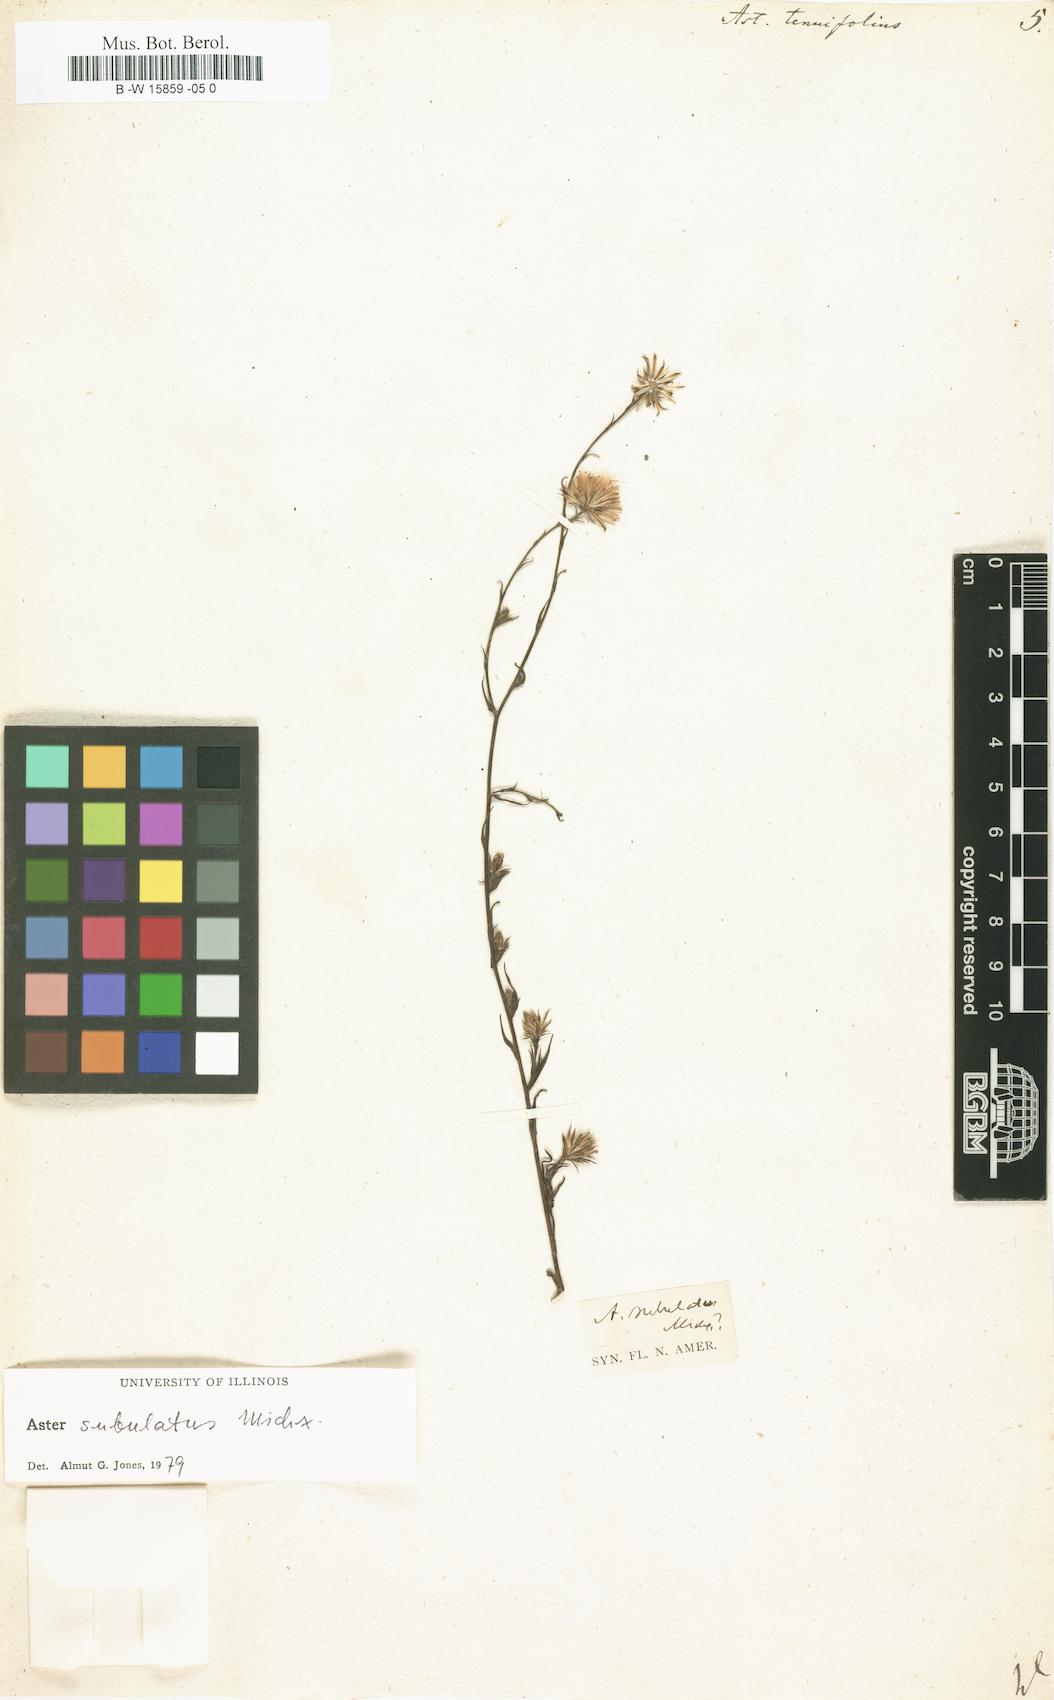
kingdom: Plantae
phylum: Tracheophyta
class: Magnoliopsida
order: Asterales
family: Asteraceae
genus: Aster
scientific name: Aster tenuifolius
